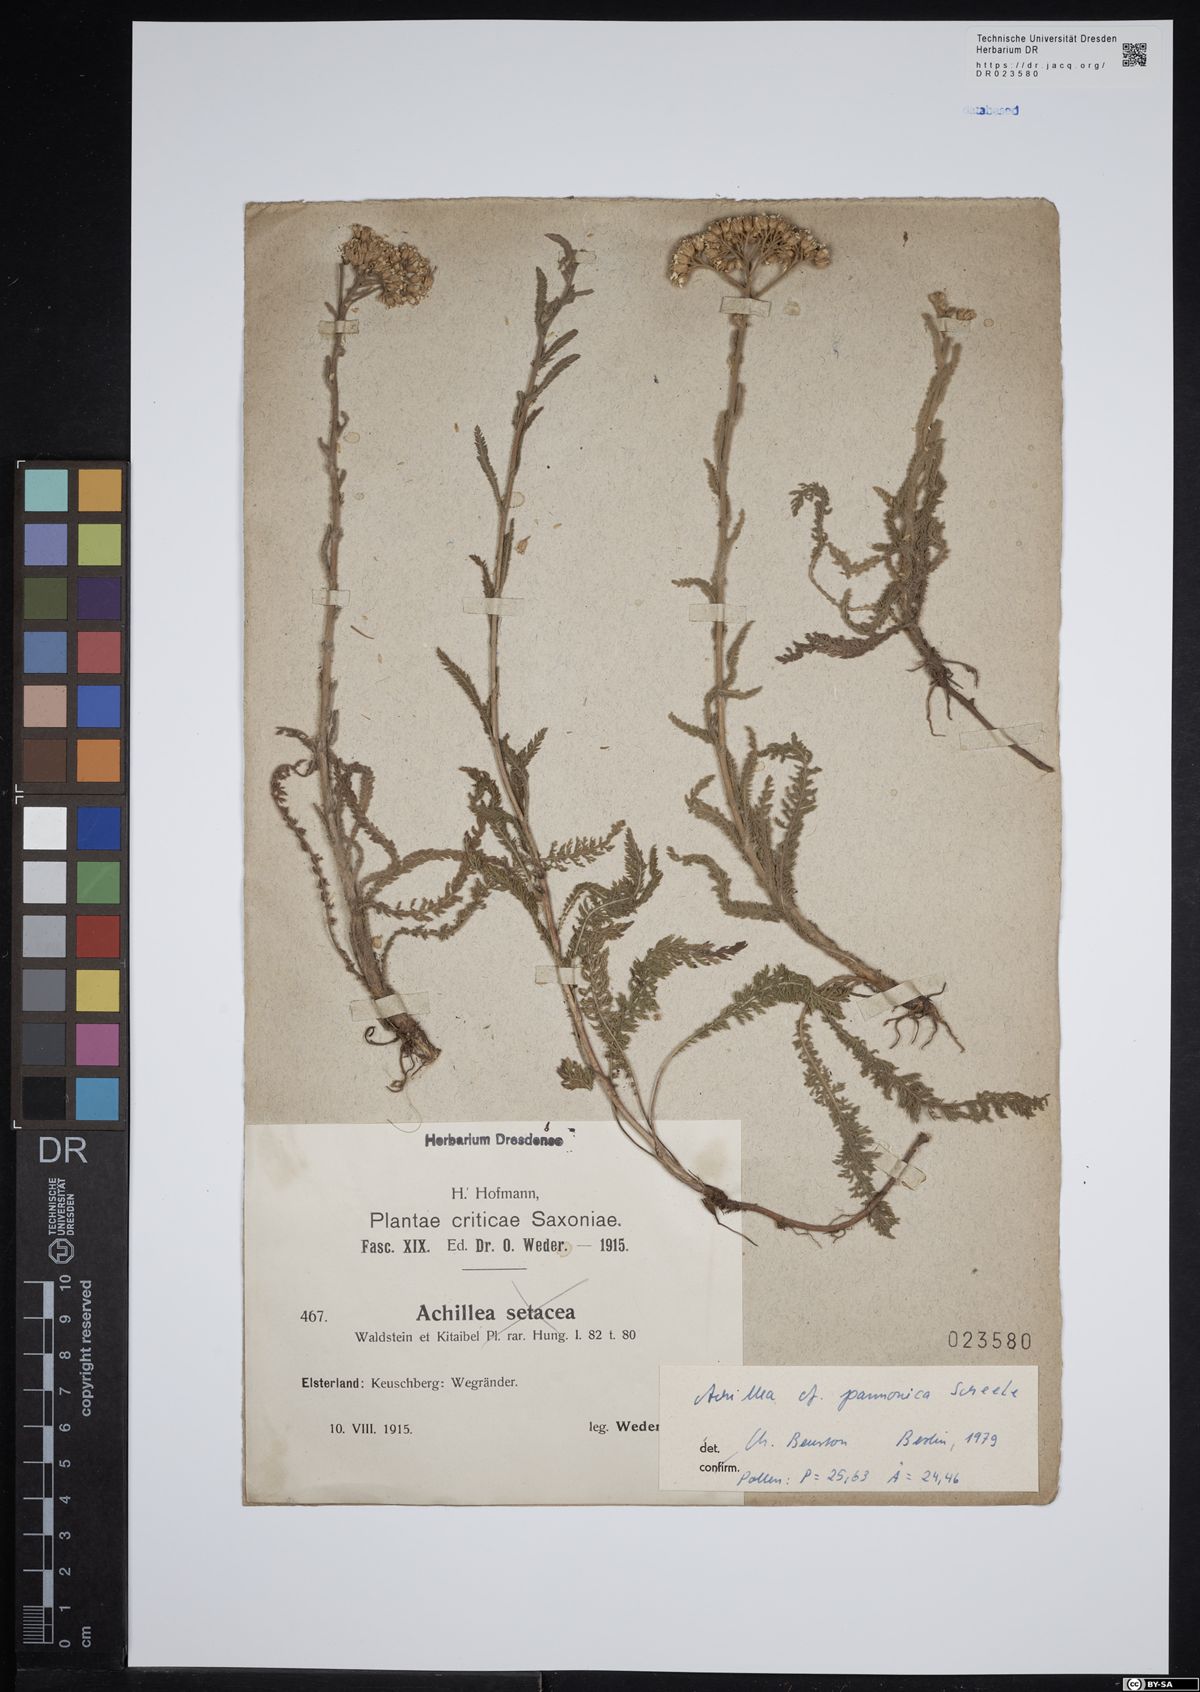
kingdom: Plantae
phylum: Tracheophyta
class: Magnoliopsida
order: Asterales
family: Asteraceae
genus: Achillea
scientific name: Achillea pannonica
